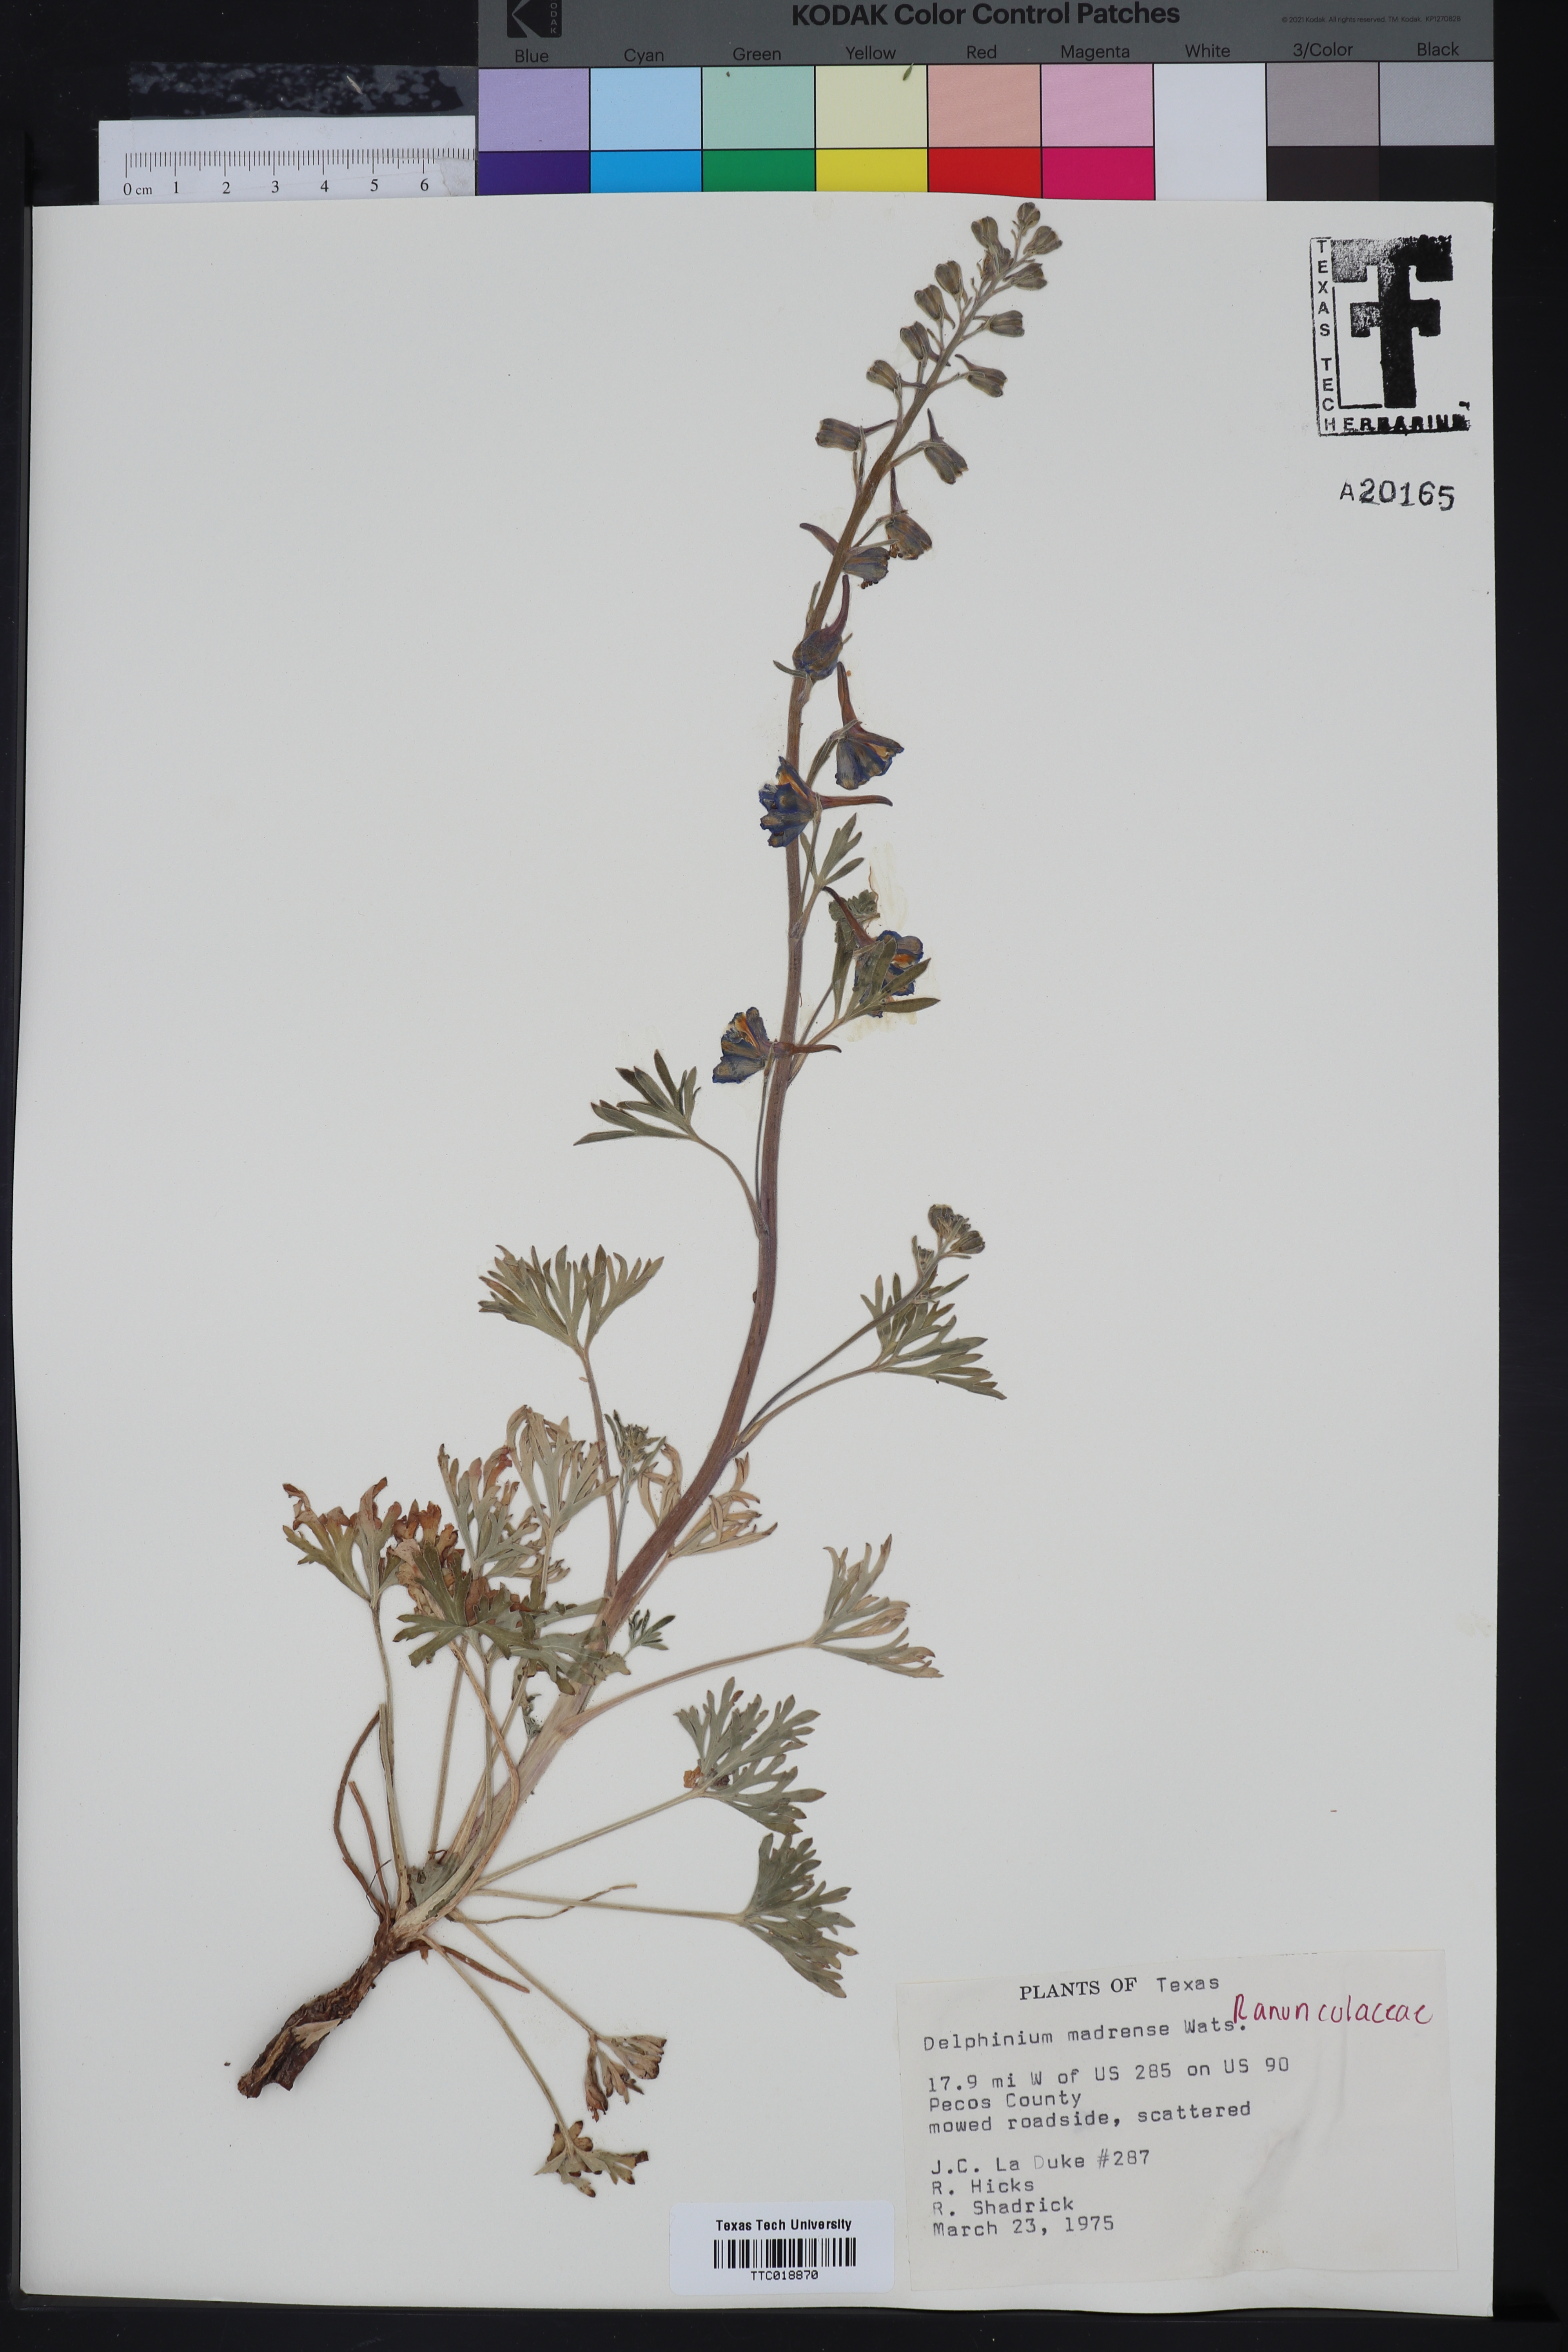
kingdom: Plantae
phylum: Tracheophyta
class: Magnoliopsida
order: Ranunculales
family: Ranunculaceae
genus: Delphinium
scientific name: Delphinium madrense
